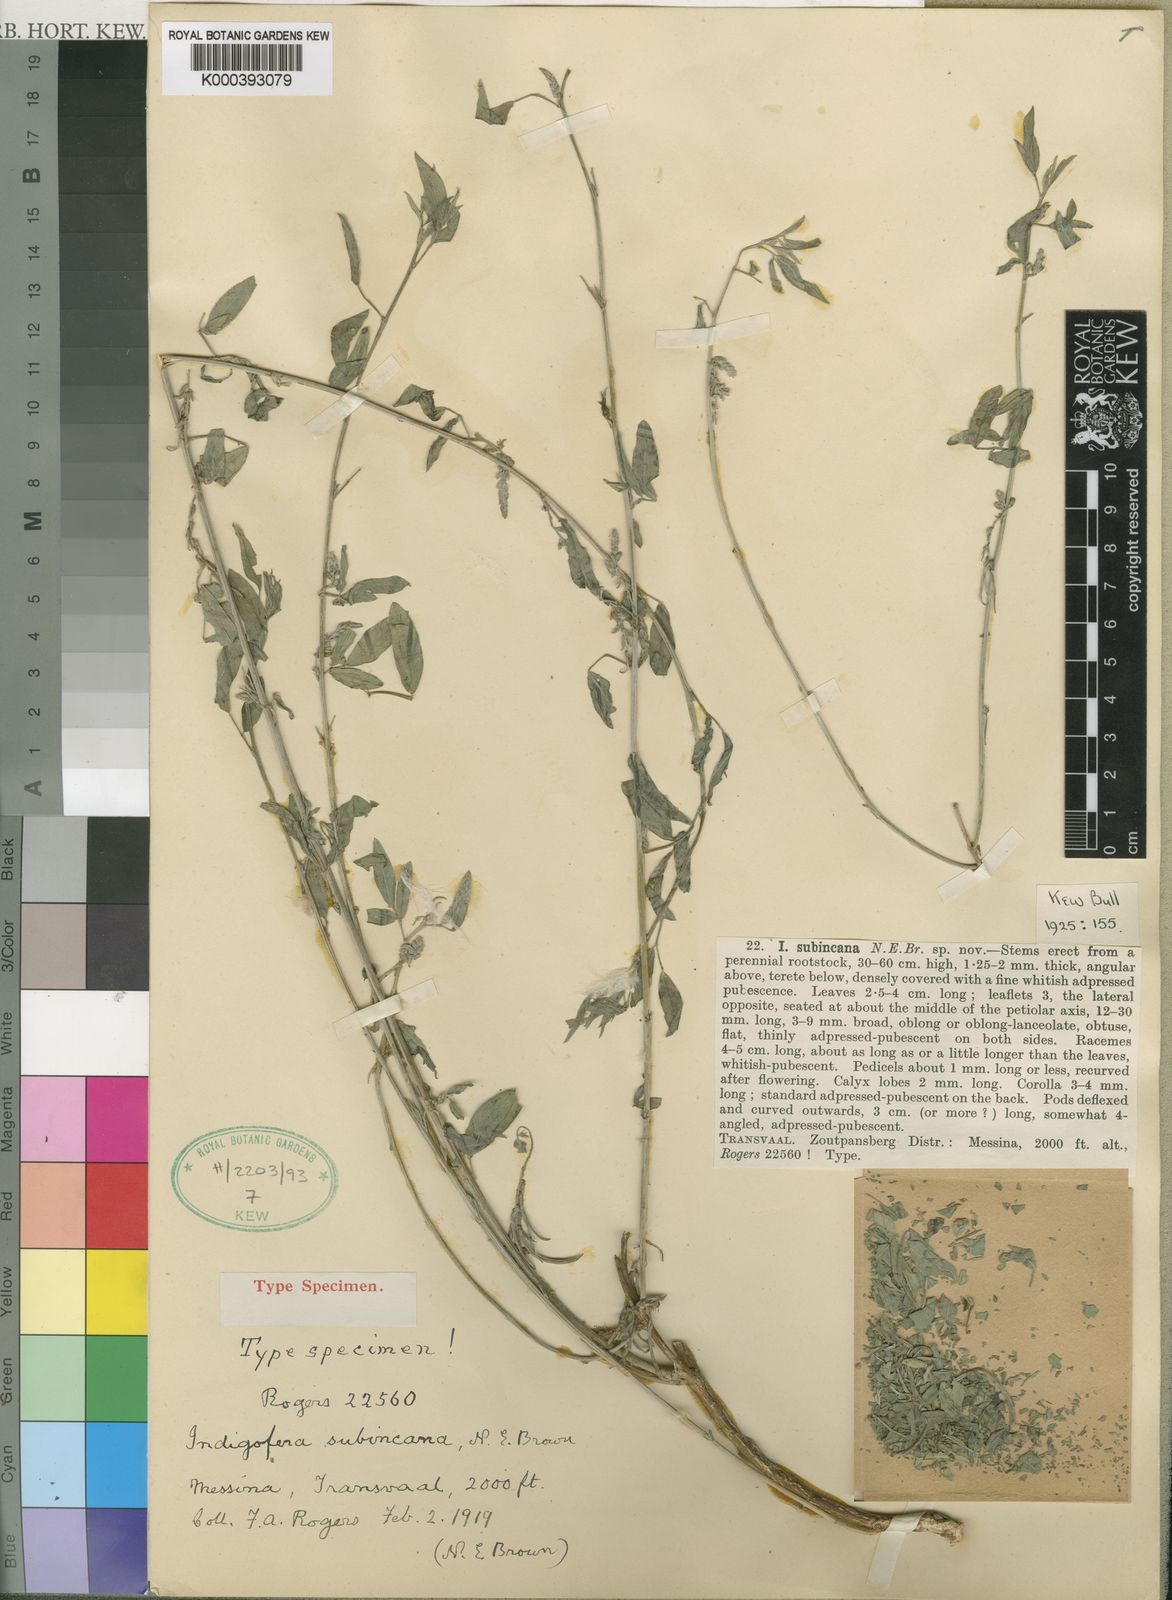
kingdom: Plantae
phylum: Tracheophyta
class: Magnoliopsida
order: Fabales
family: Fabaceae
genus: Indigofera
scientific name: Indigofera subulata
